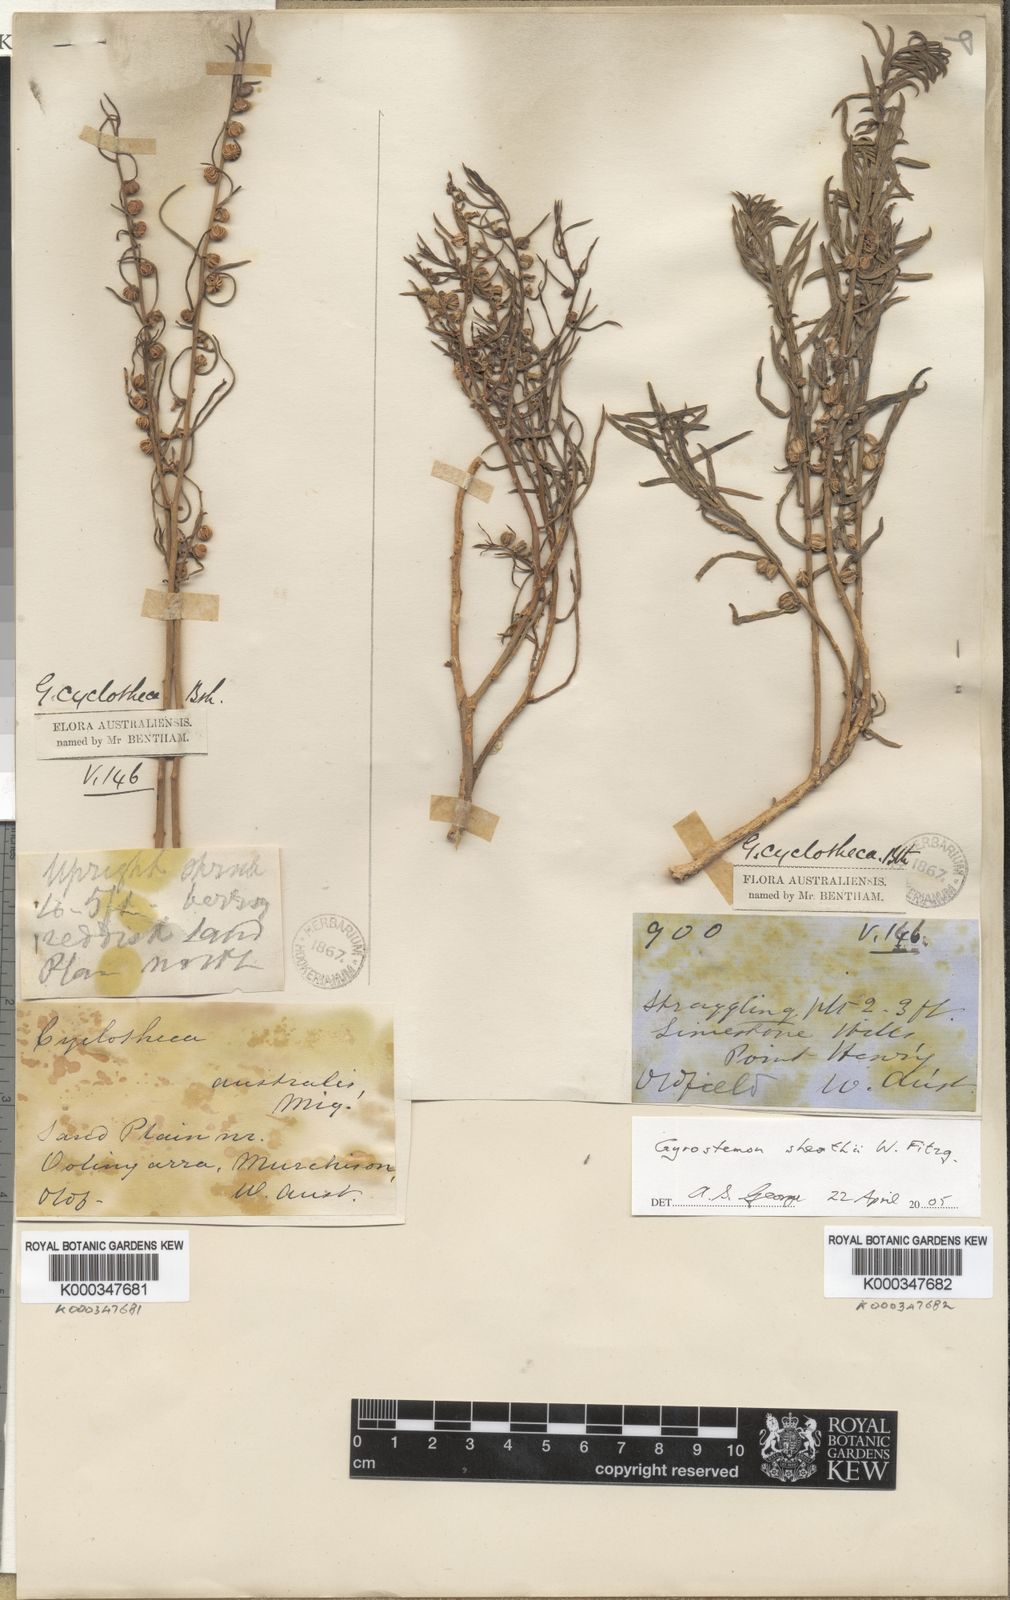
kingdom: Plantae
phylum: Tracheophyta
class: Magnoliopsida
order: Brassicales
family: Gyrostemonaceae
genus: Gyrostemon
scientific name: Gyrostemon australasicus
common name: Wheelfruit
